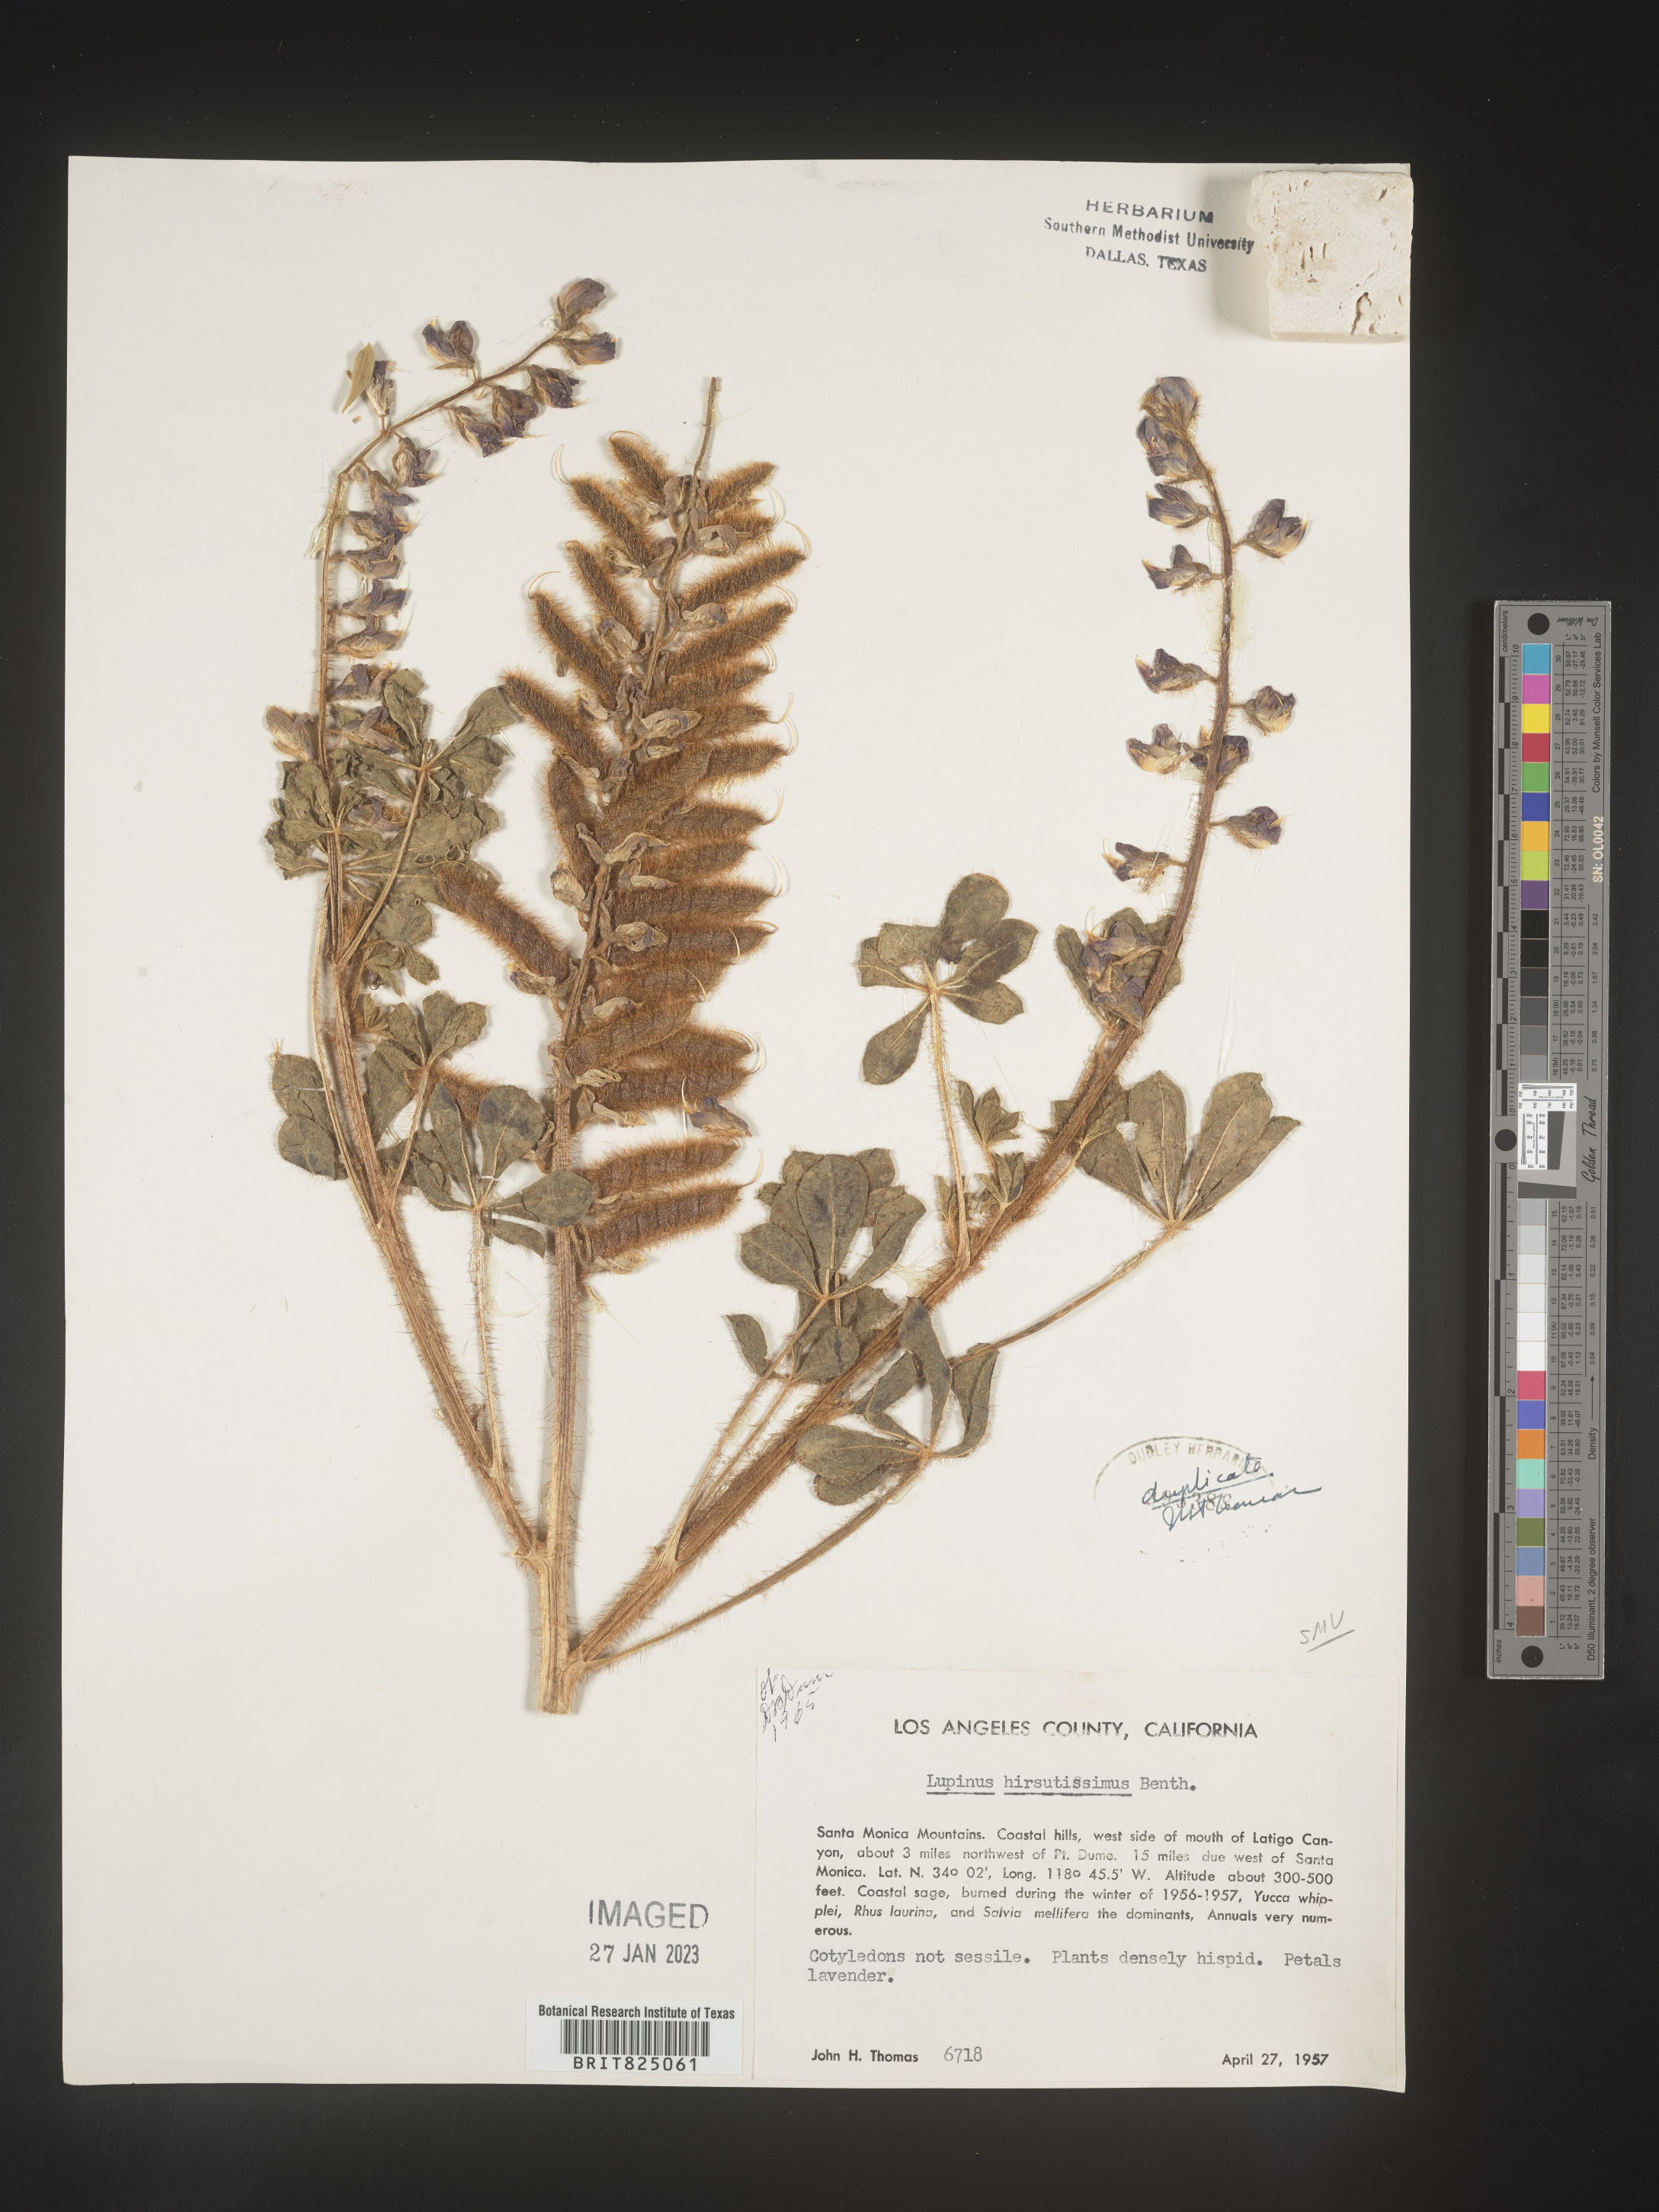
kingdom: Plantae
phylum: Tracheophyta
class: Magnoliopsida
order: Fabales
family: Fabaceae
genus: Lupinus
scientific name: Lupinus
